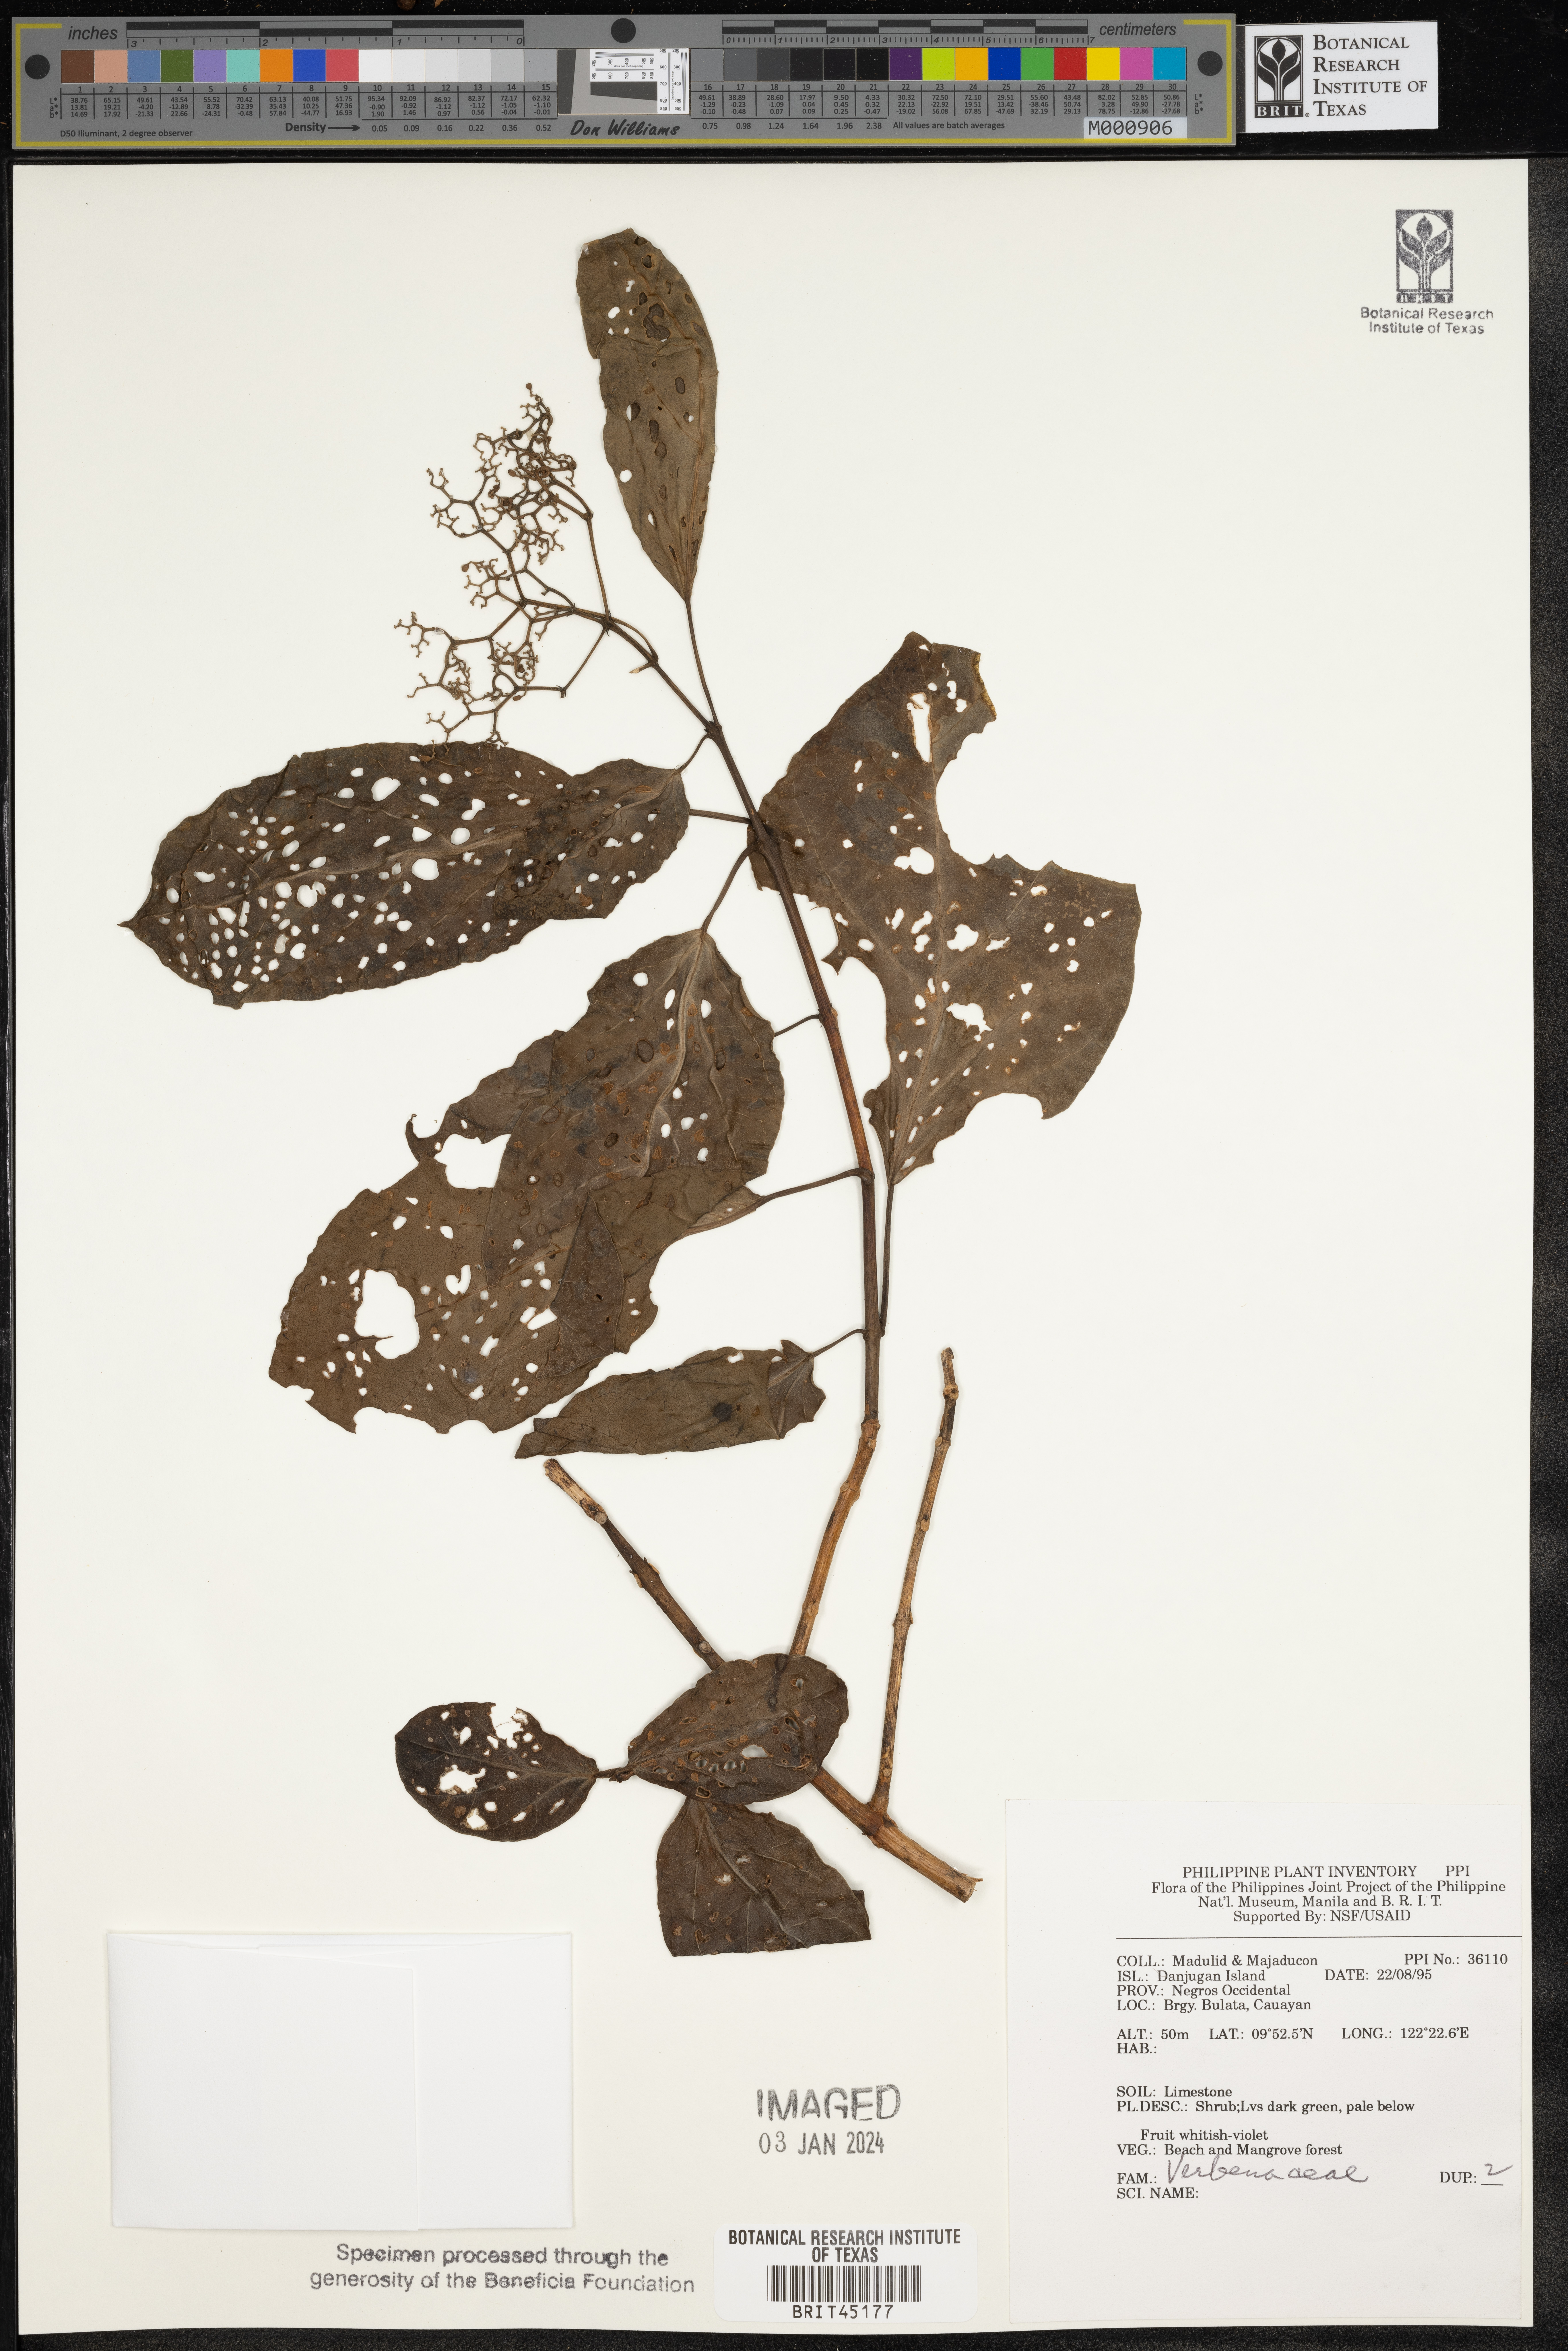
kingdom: Plantae
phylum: Tracheophyta
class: Magnoliopsida
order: Lamiales
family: Verbenaceae
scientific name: Verbenaceae
